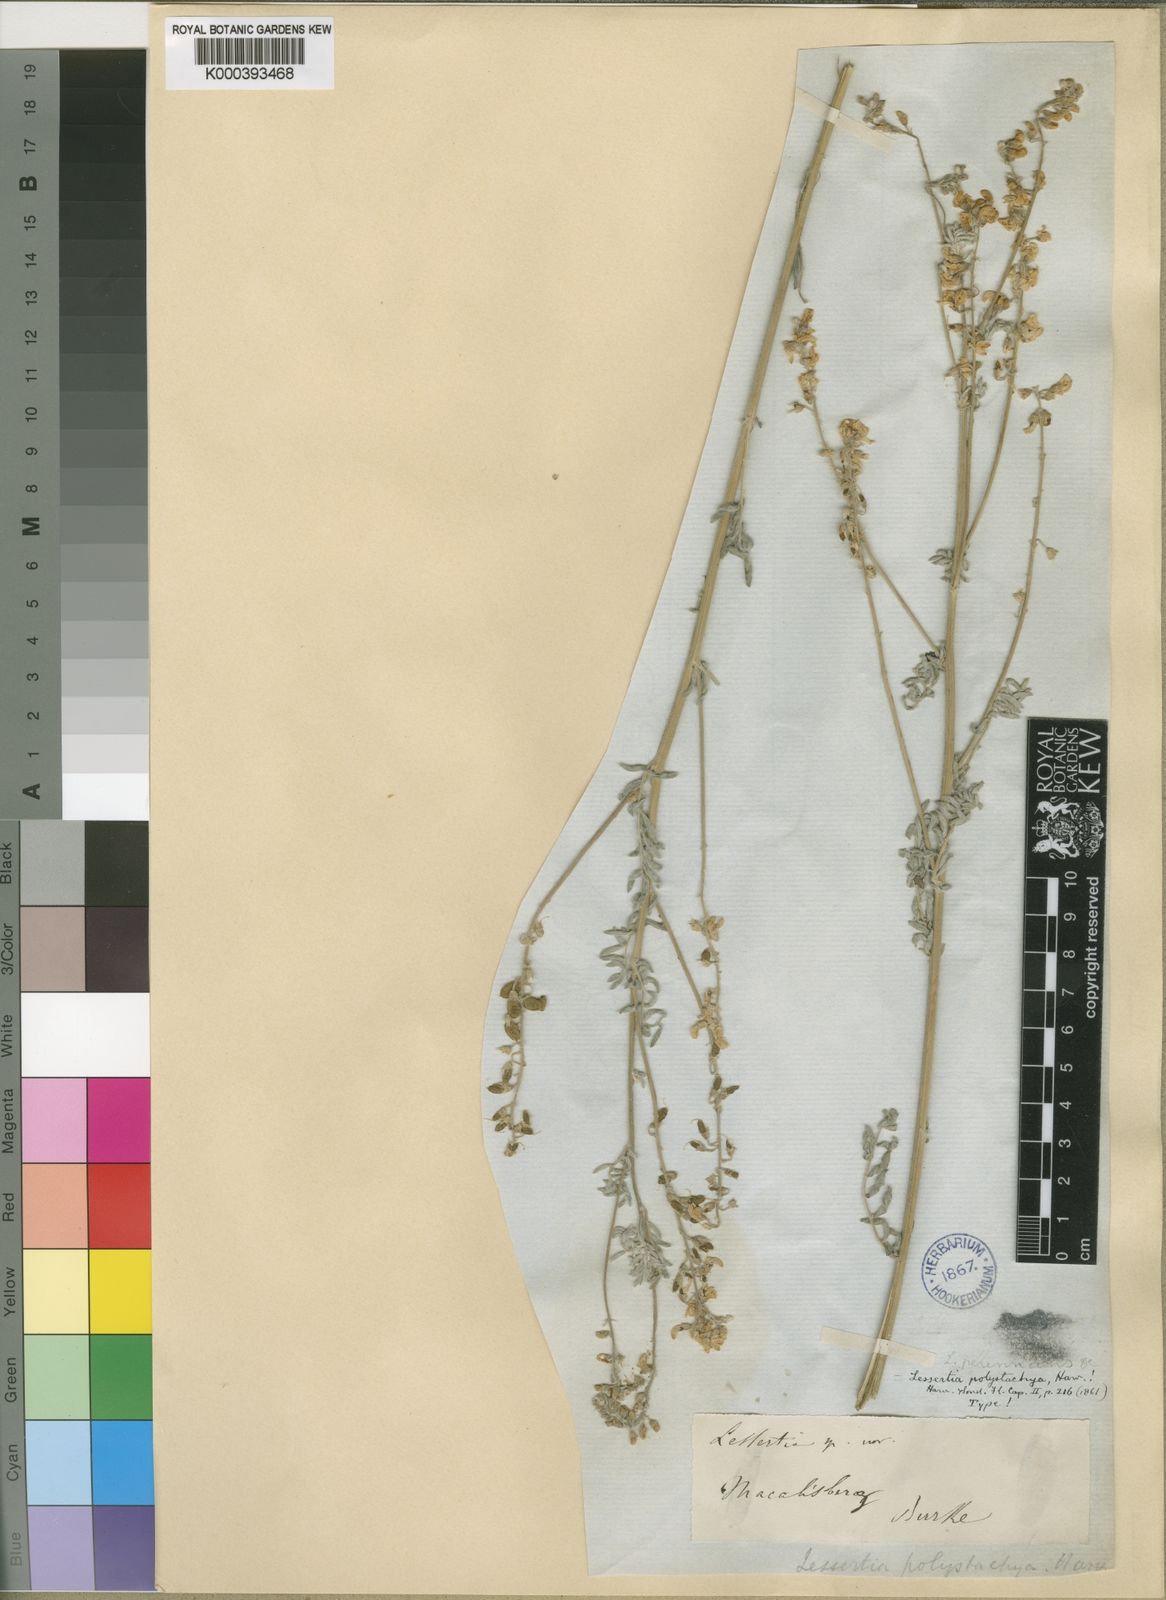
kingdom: Plantae
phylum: Tracheophyta
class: Magnoliopsida
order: Fabales
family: Fabaceae
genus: Lessertia
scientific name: Lessertia perennans
